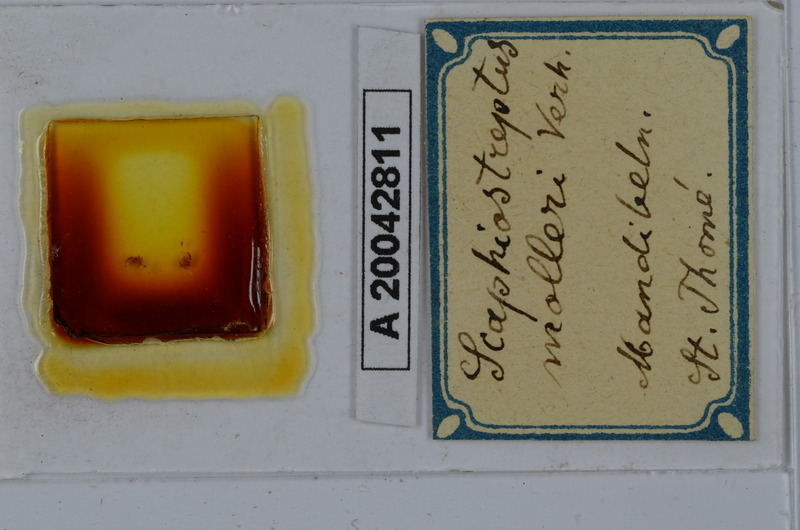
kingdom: Animalia
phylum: Arthropoda
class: Diplopoda
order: Spirostreptida
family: Spirostreptidae
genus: Globanus
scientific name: Globanus integer
